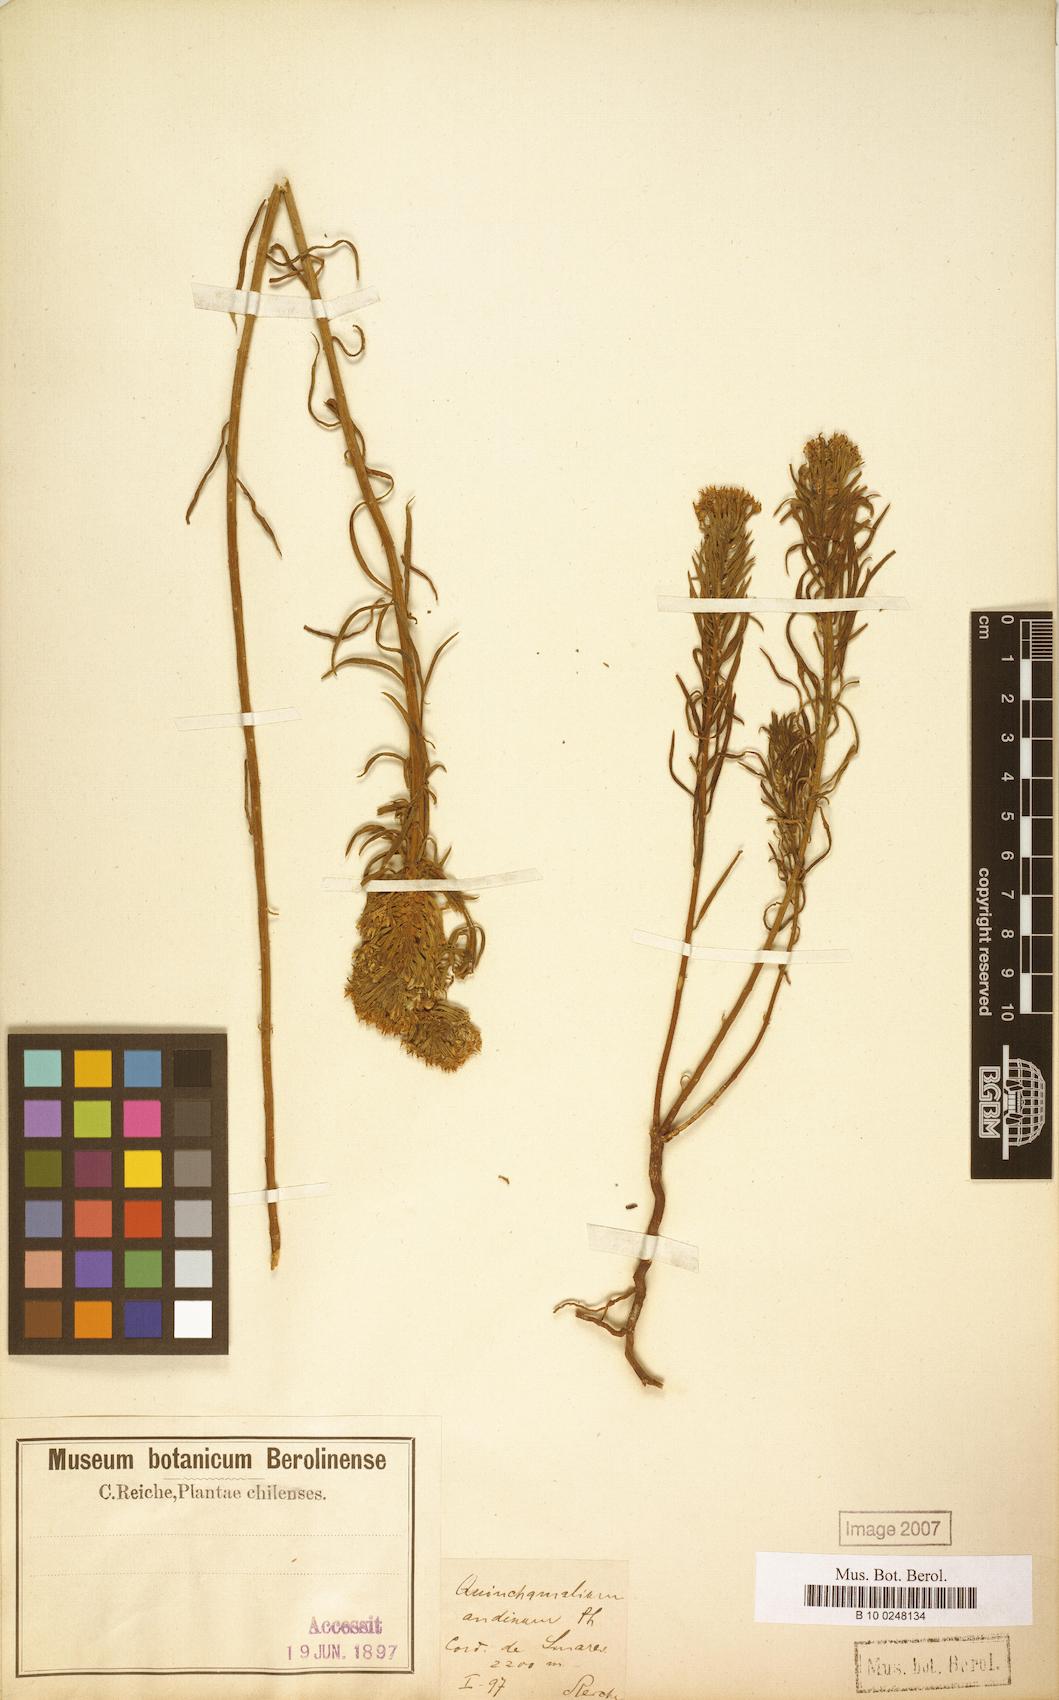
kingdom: Plantae
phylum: Tracheophyta
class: Magnoliopsida
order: Santalales
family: Schoepfiaceae
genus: Quinchamalium
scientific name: Quinchamalium chilense
